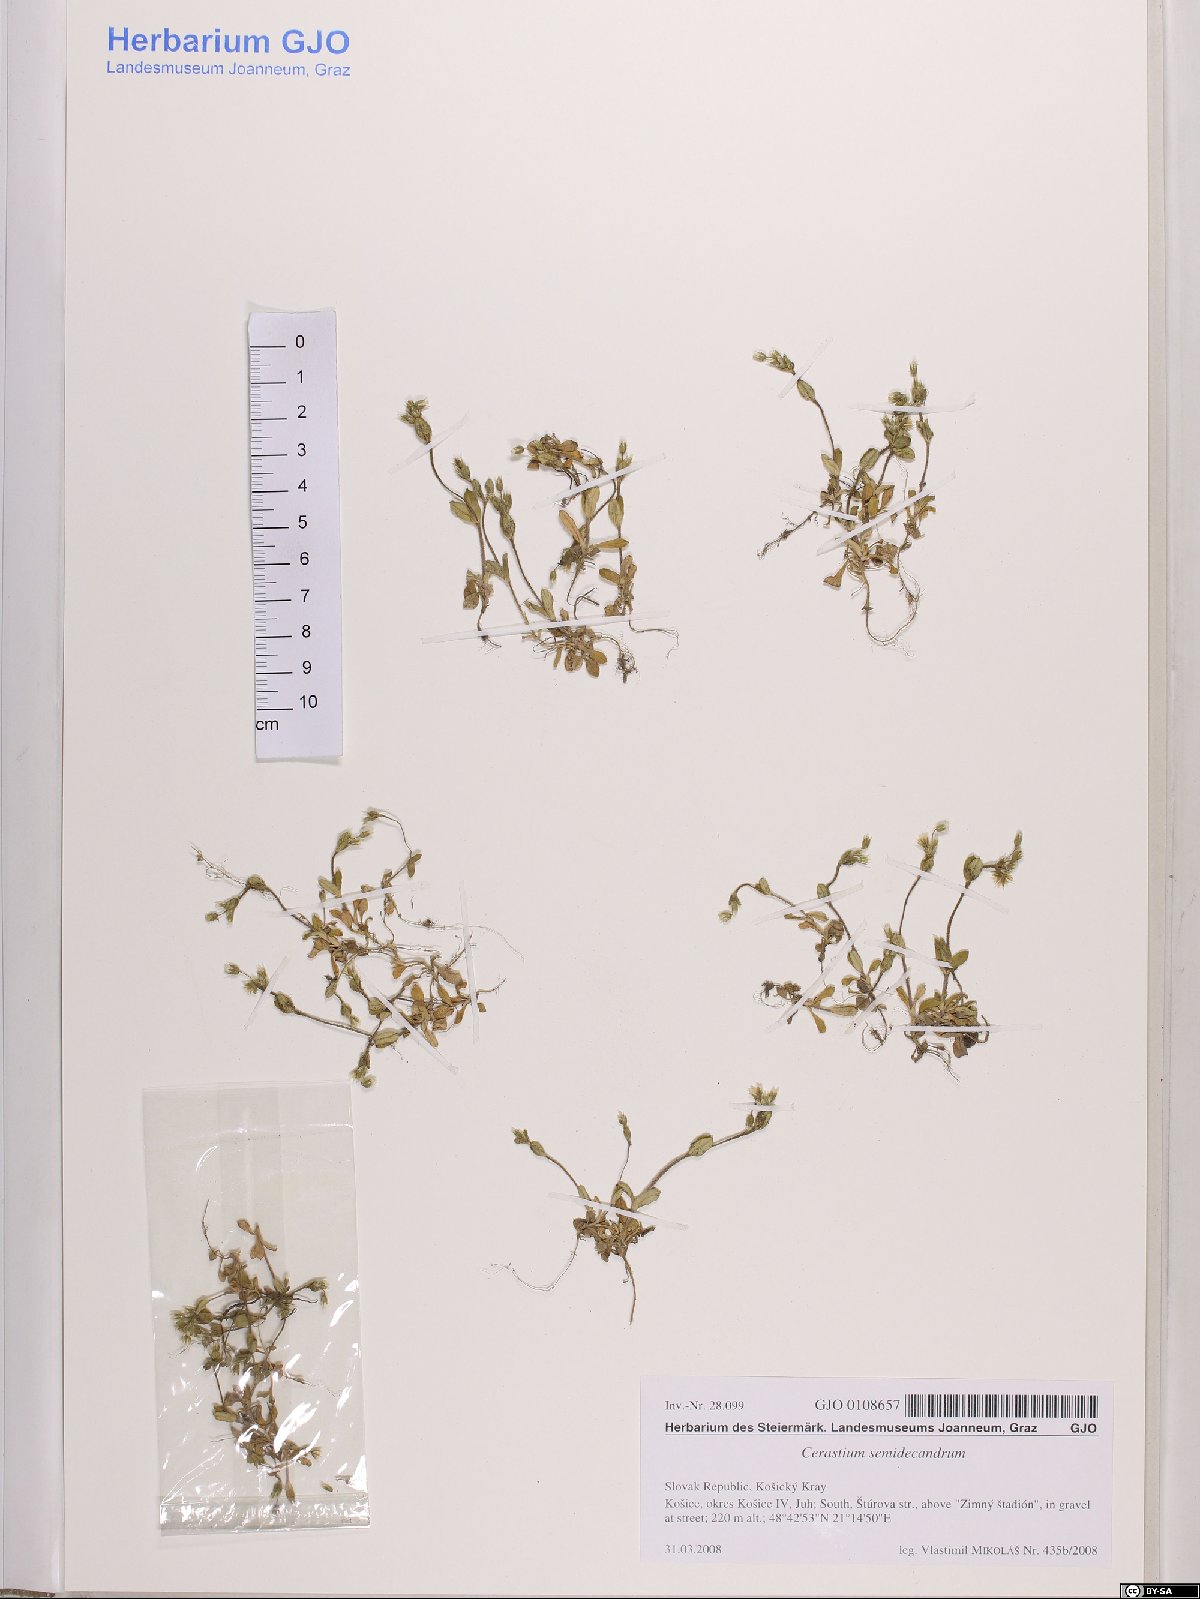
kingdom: Plantae
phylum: Tracheophyta
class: Magnoliopsida
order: Caryophyllales
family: Caryophyllaceae
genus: Cerastium
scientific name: Cerastium semidecandrum
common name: Little mouse-ear
